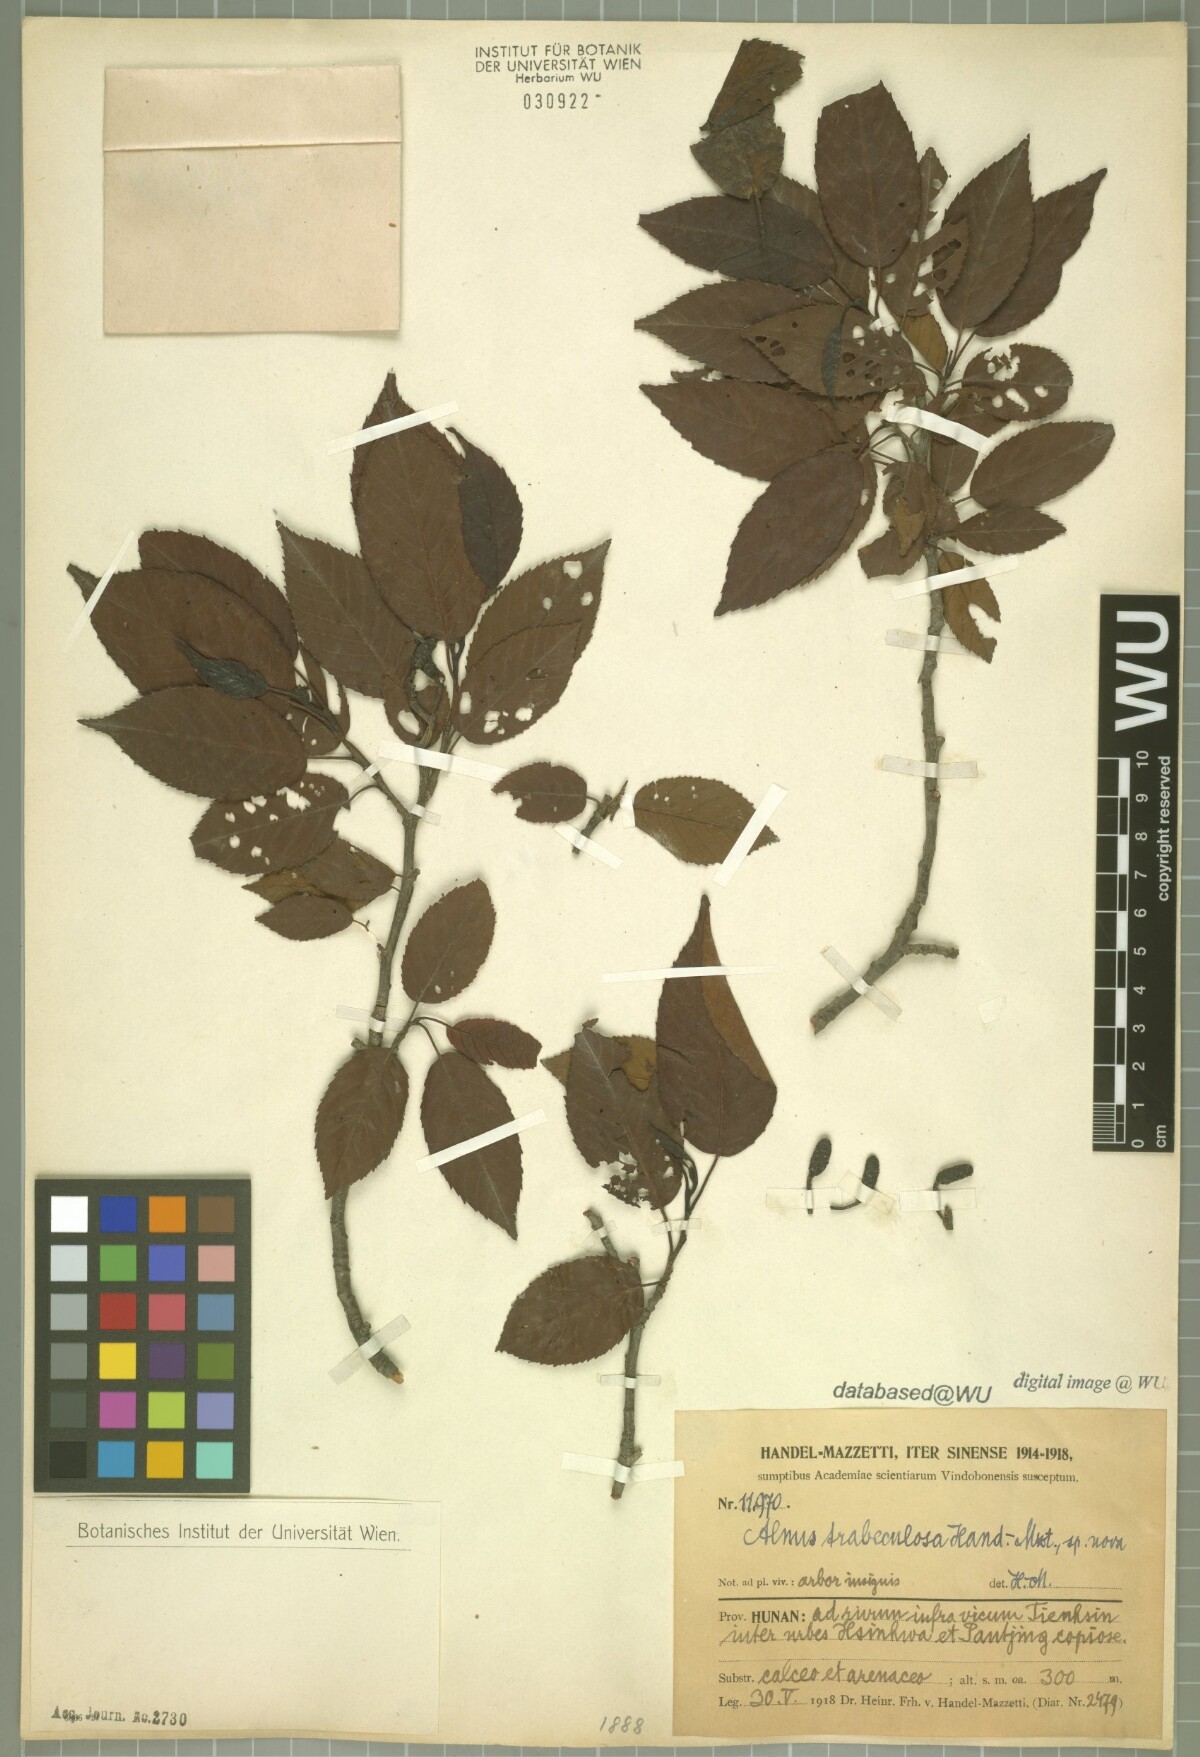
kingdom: Plantae
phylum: Tracheophyta
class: Magnoliopsida
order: Fagales
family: Betulaceae
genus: Alnus
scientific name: Alnus trabeculosa
